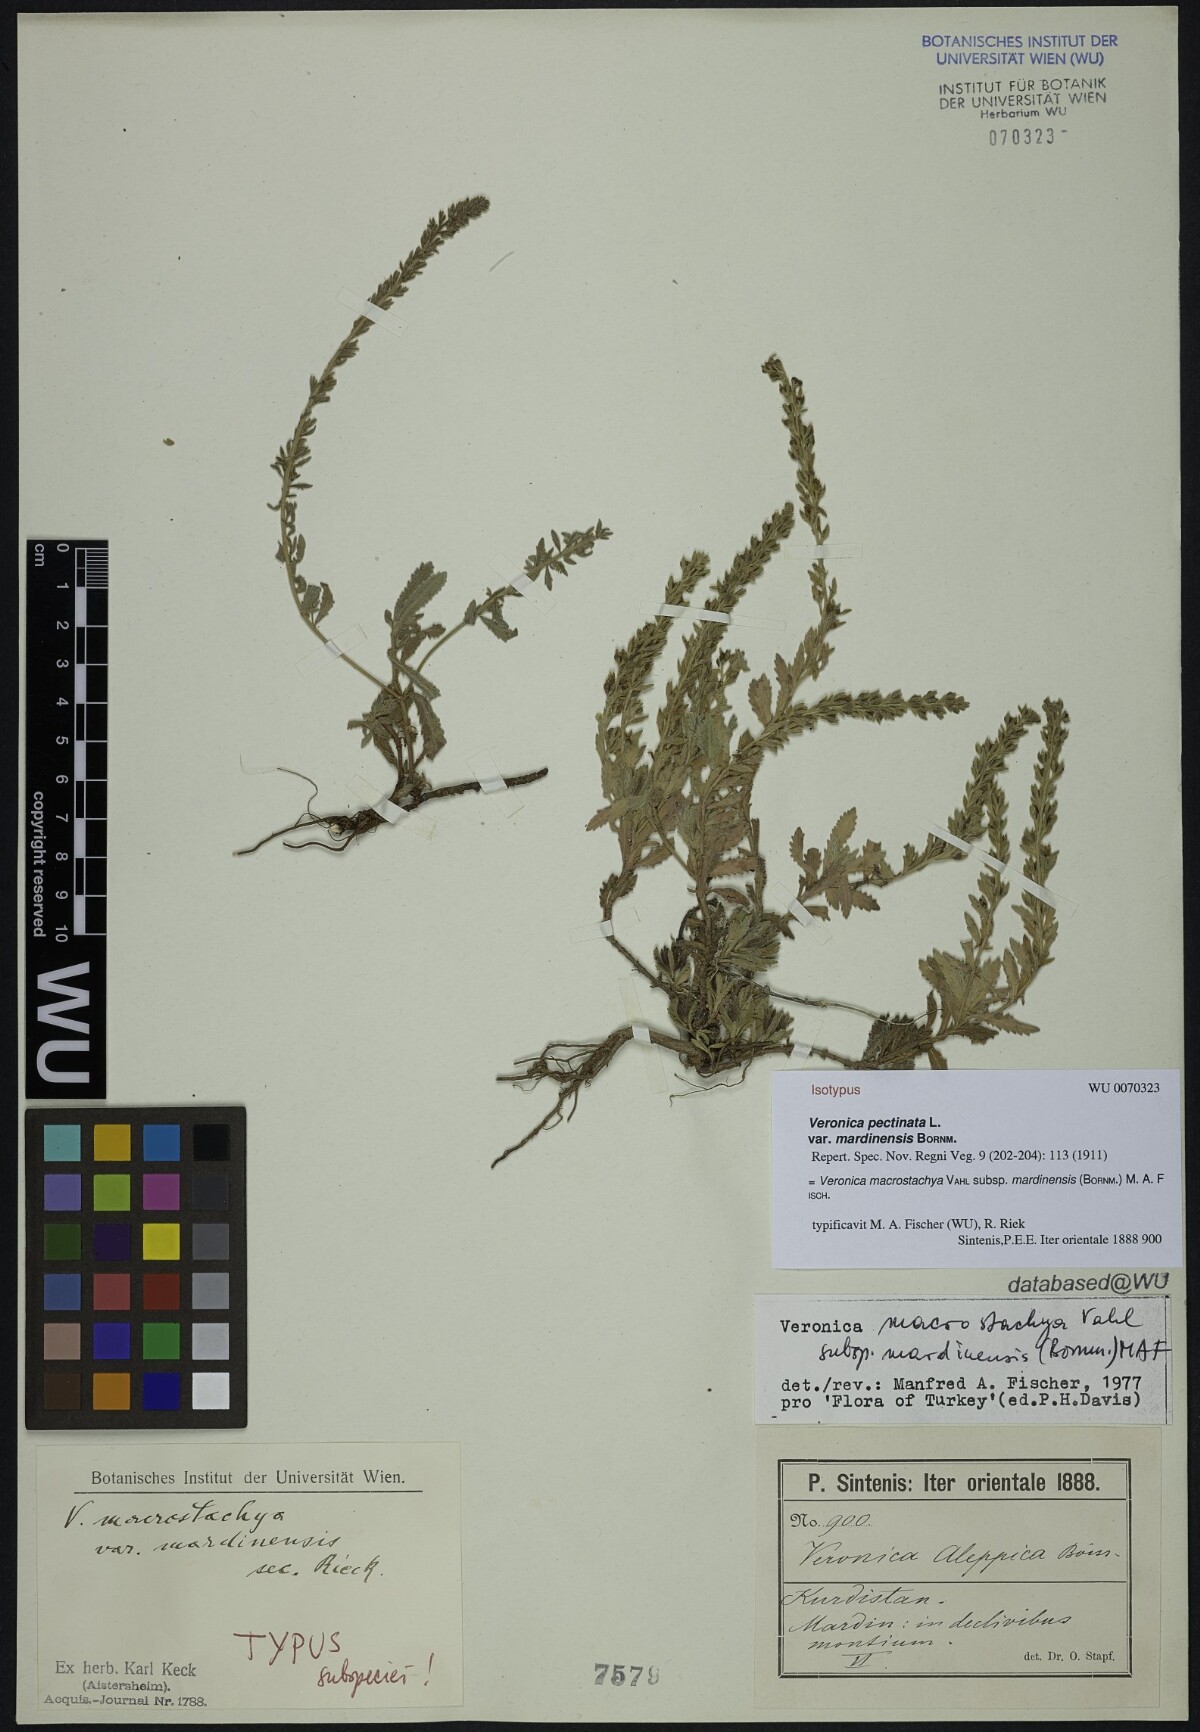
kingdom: Plantae
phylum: Tracheophyta
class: Magnoliopsida
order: Lamiales
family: Plantaginaceae
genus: Veronica
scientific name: Veronica macrostachya
